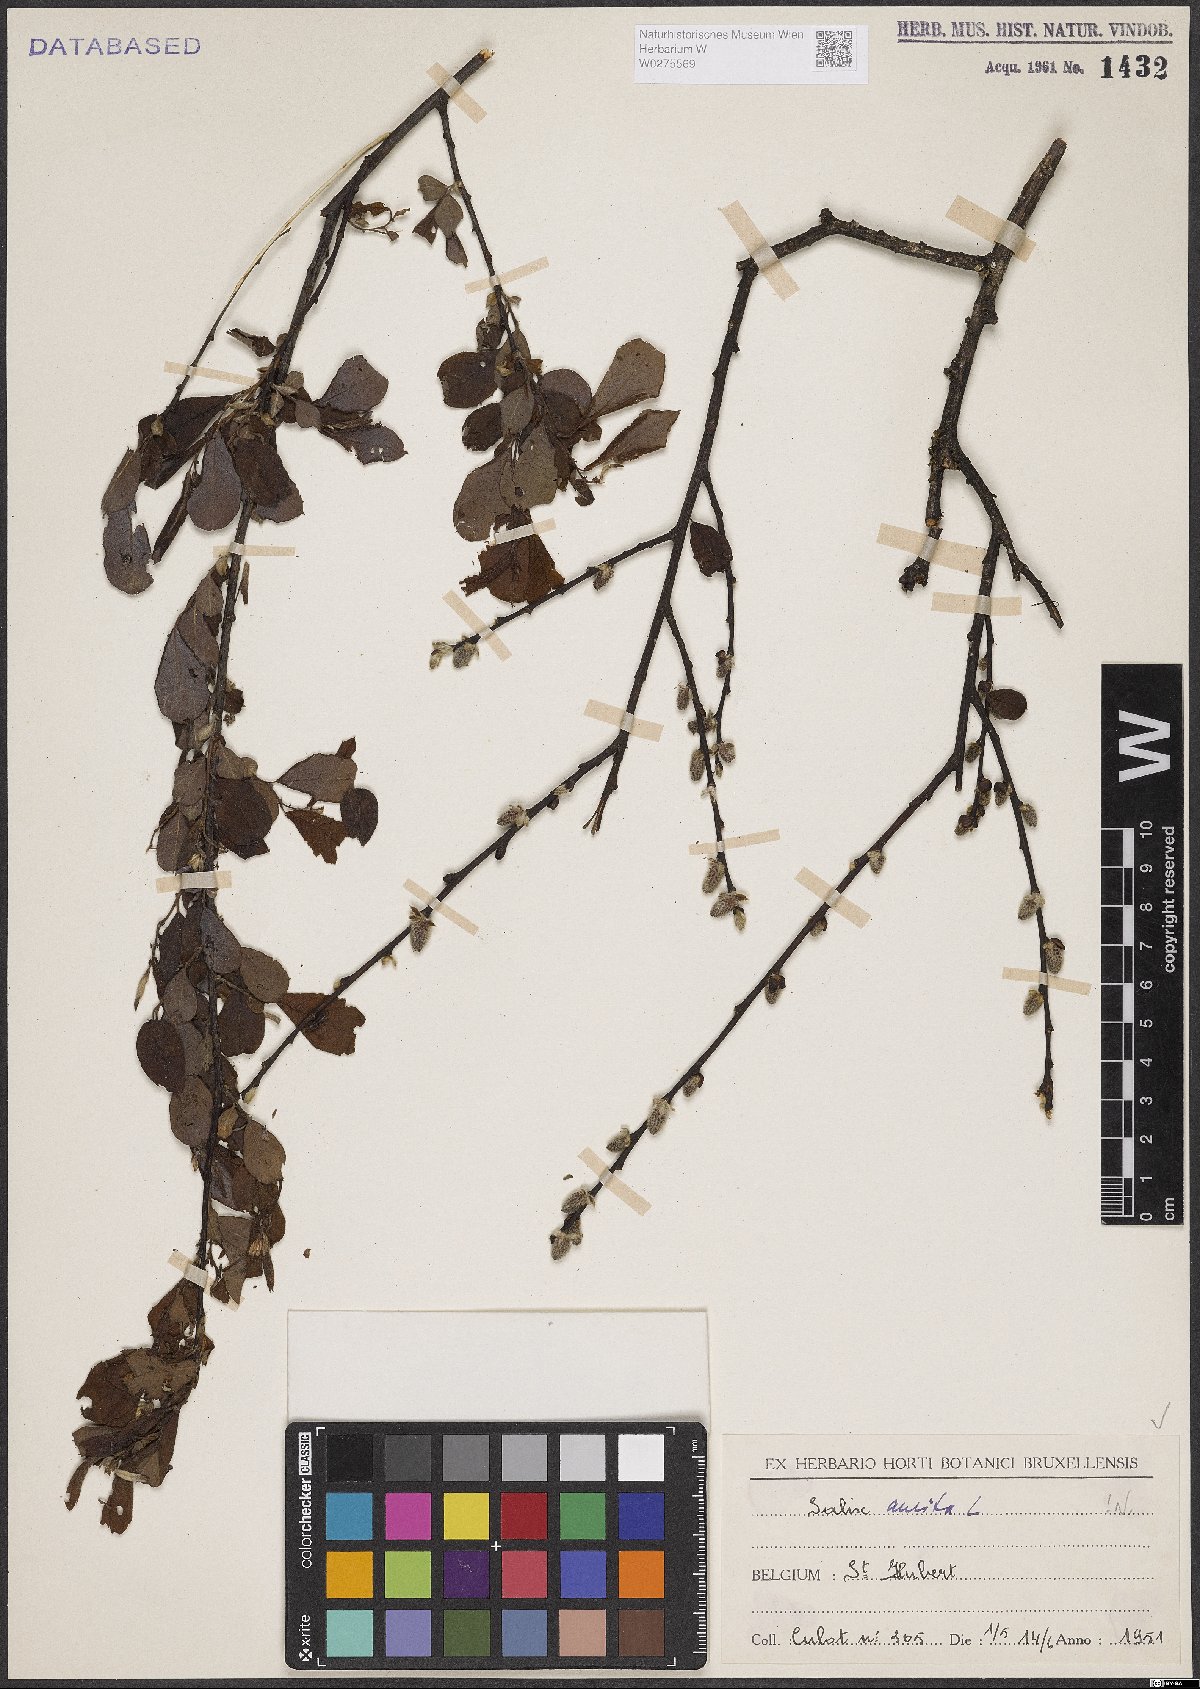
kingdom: Plantae
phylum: Tracheophyta
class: Magnoliopsida
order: Malpighiales
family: Salicaceae
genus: Salix
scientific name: Salix aurita
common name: Eared willow
